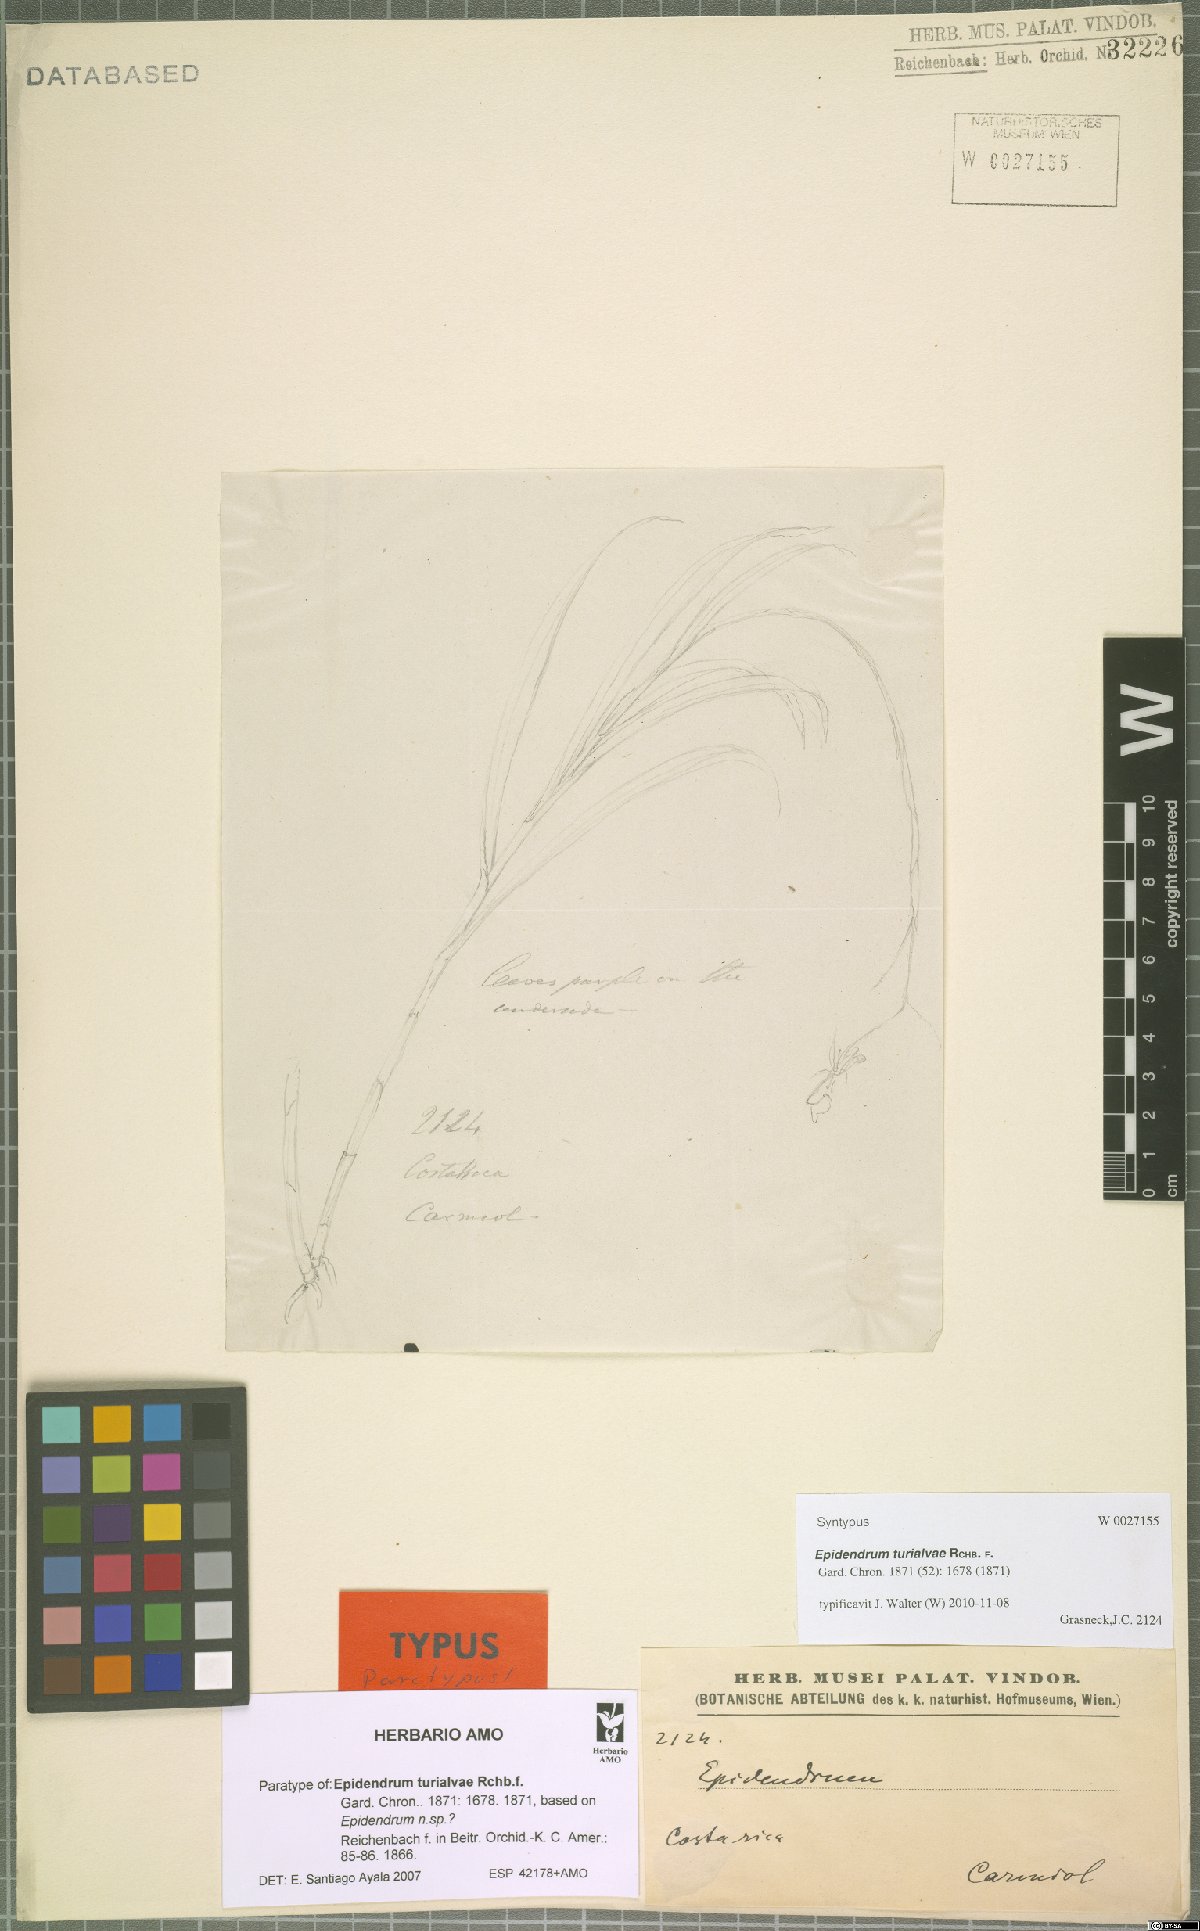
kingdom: Plantae
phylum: Tracheophyta
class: Liliopsida
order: Asparagales
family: Orchidaceae
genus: Epidendrum
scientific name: Epidendrum turialvae
